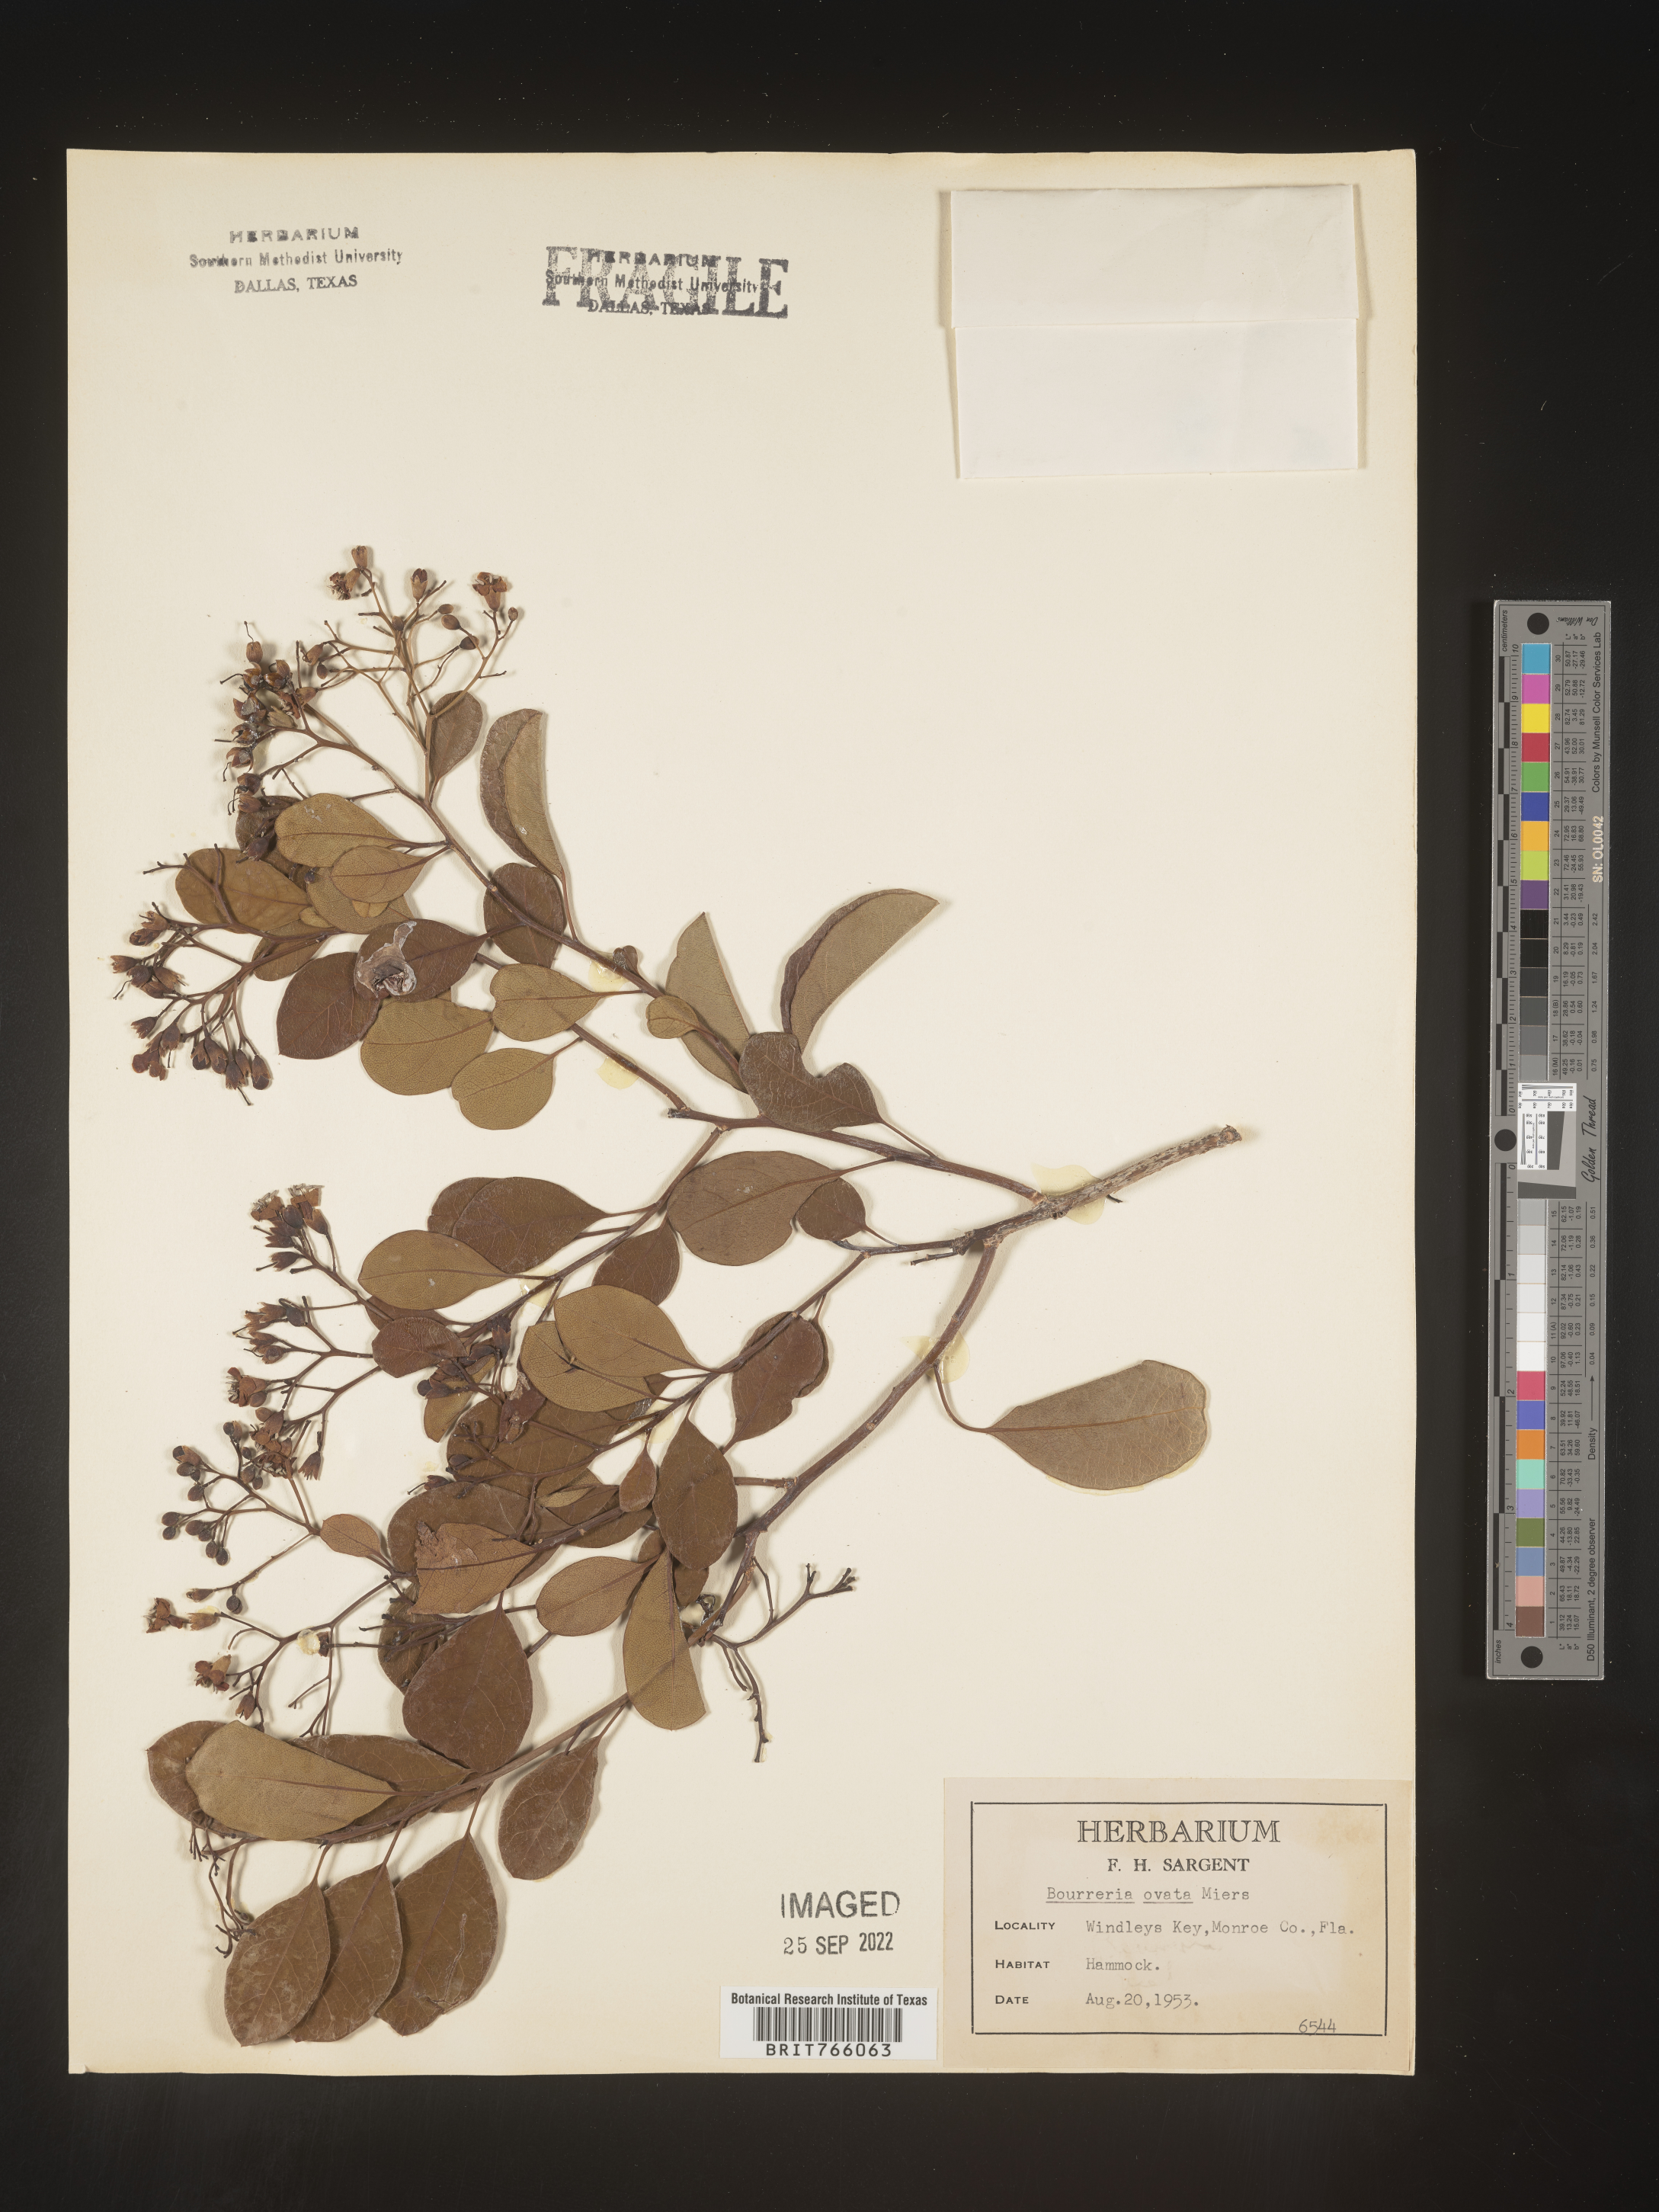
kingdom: Plantae
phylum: Tracheophyta
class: Magnoliopsida
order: Boraginales
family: Ehretiaceae
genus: Bourreria
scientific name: Bourreria
